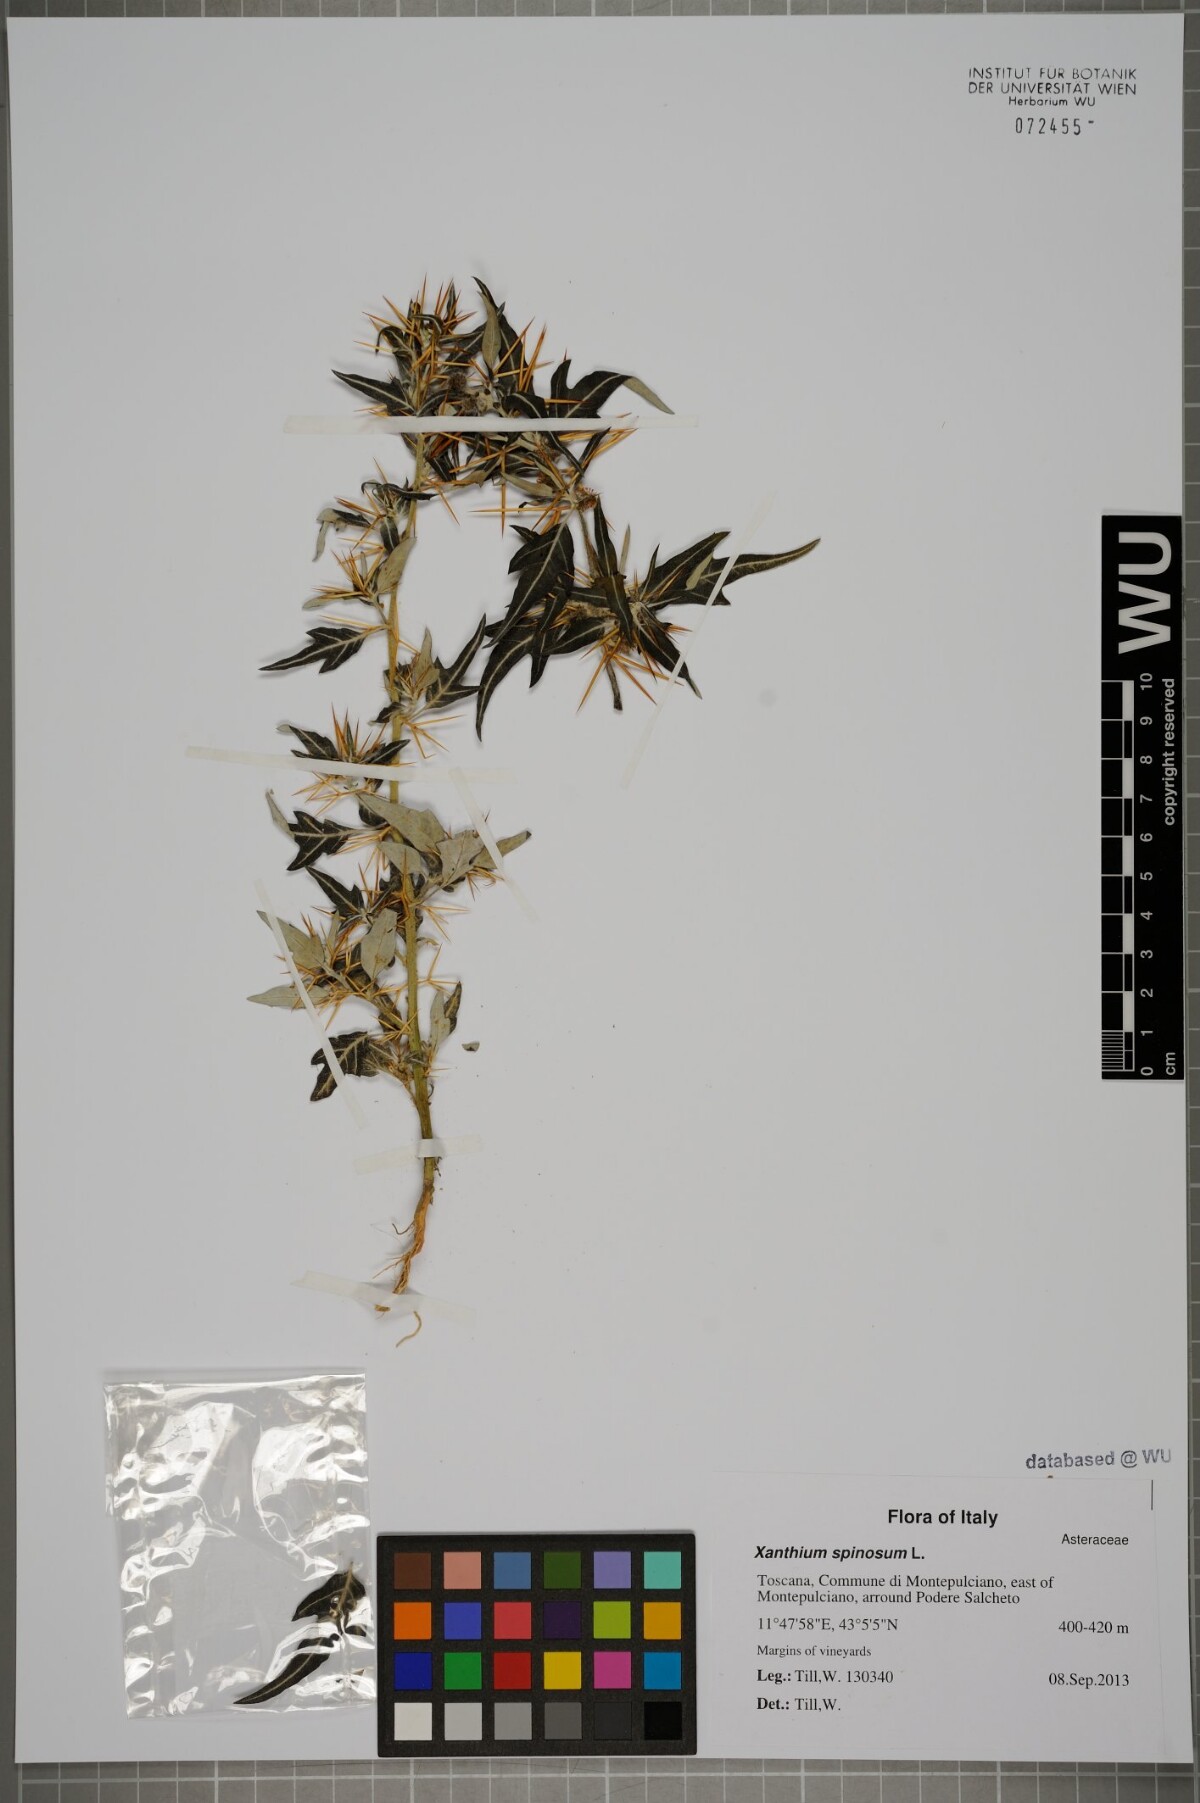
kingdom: Plantae
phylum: Tracheophyta
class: Magnoliopsida
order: Asterales
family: Asteraceae
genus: Xanthium
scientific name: Xanthium spinosum
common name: Spiny cocklebur
